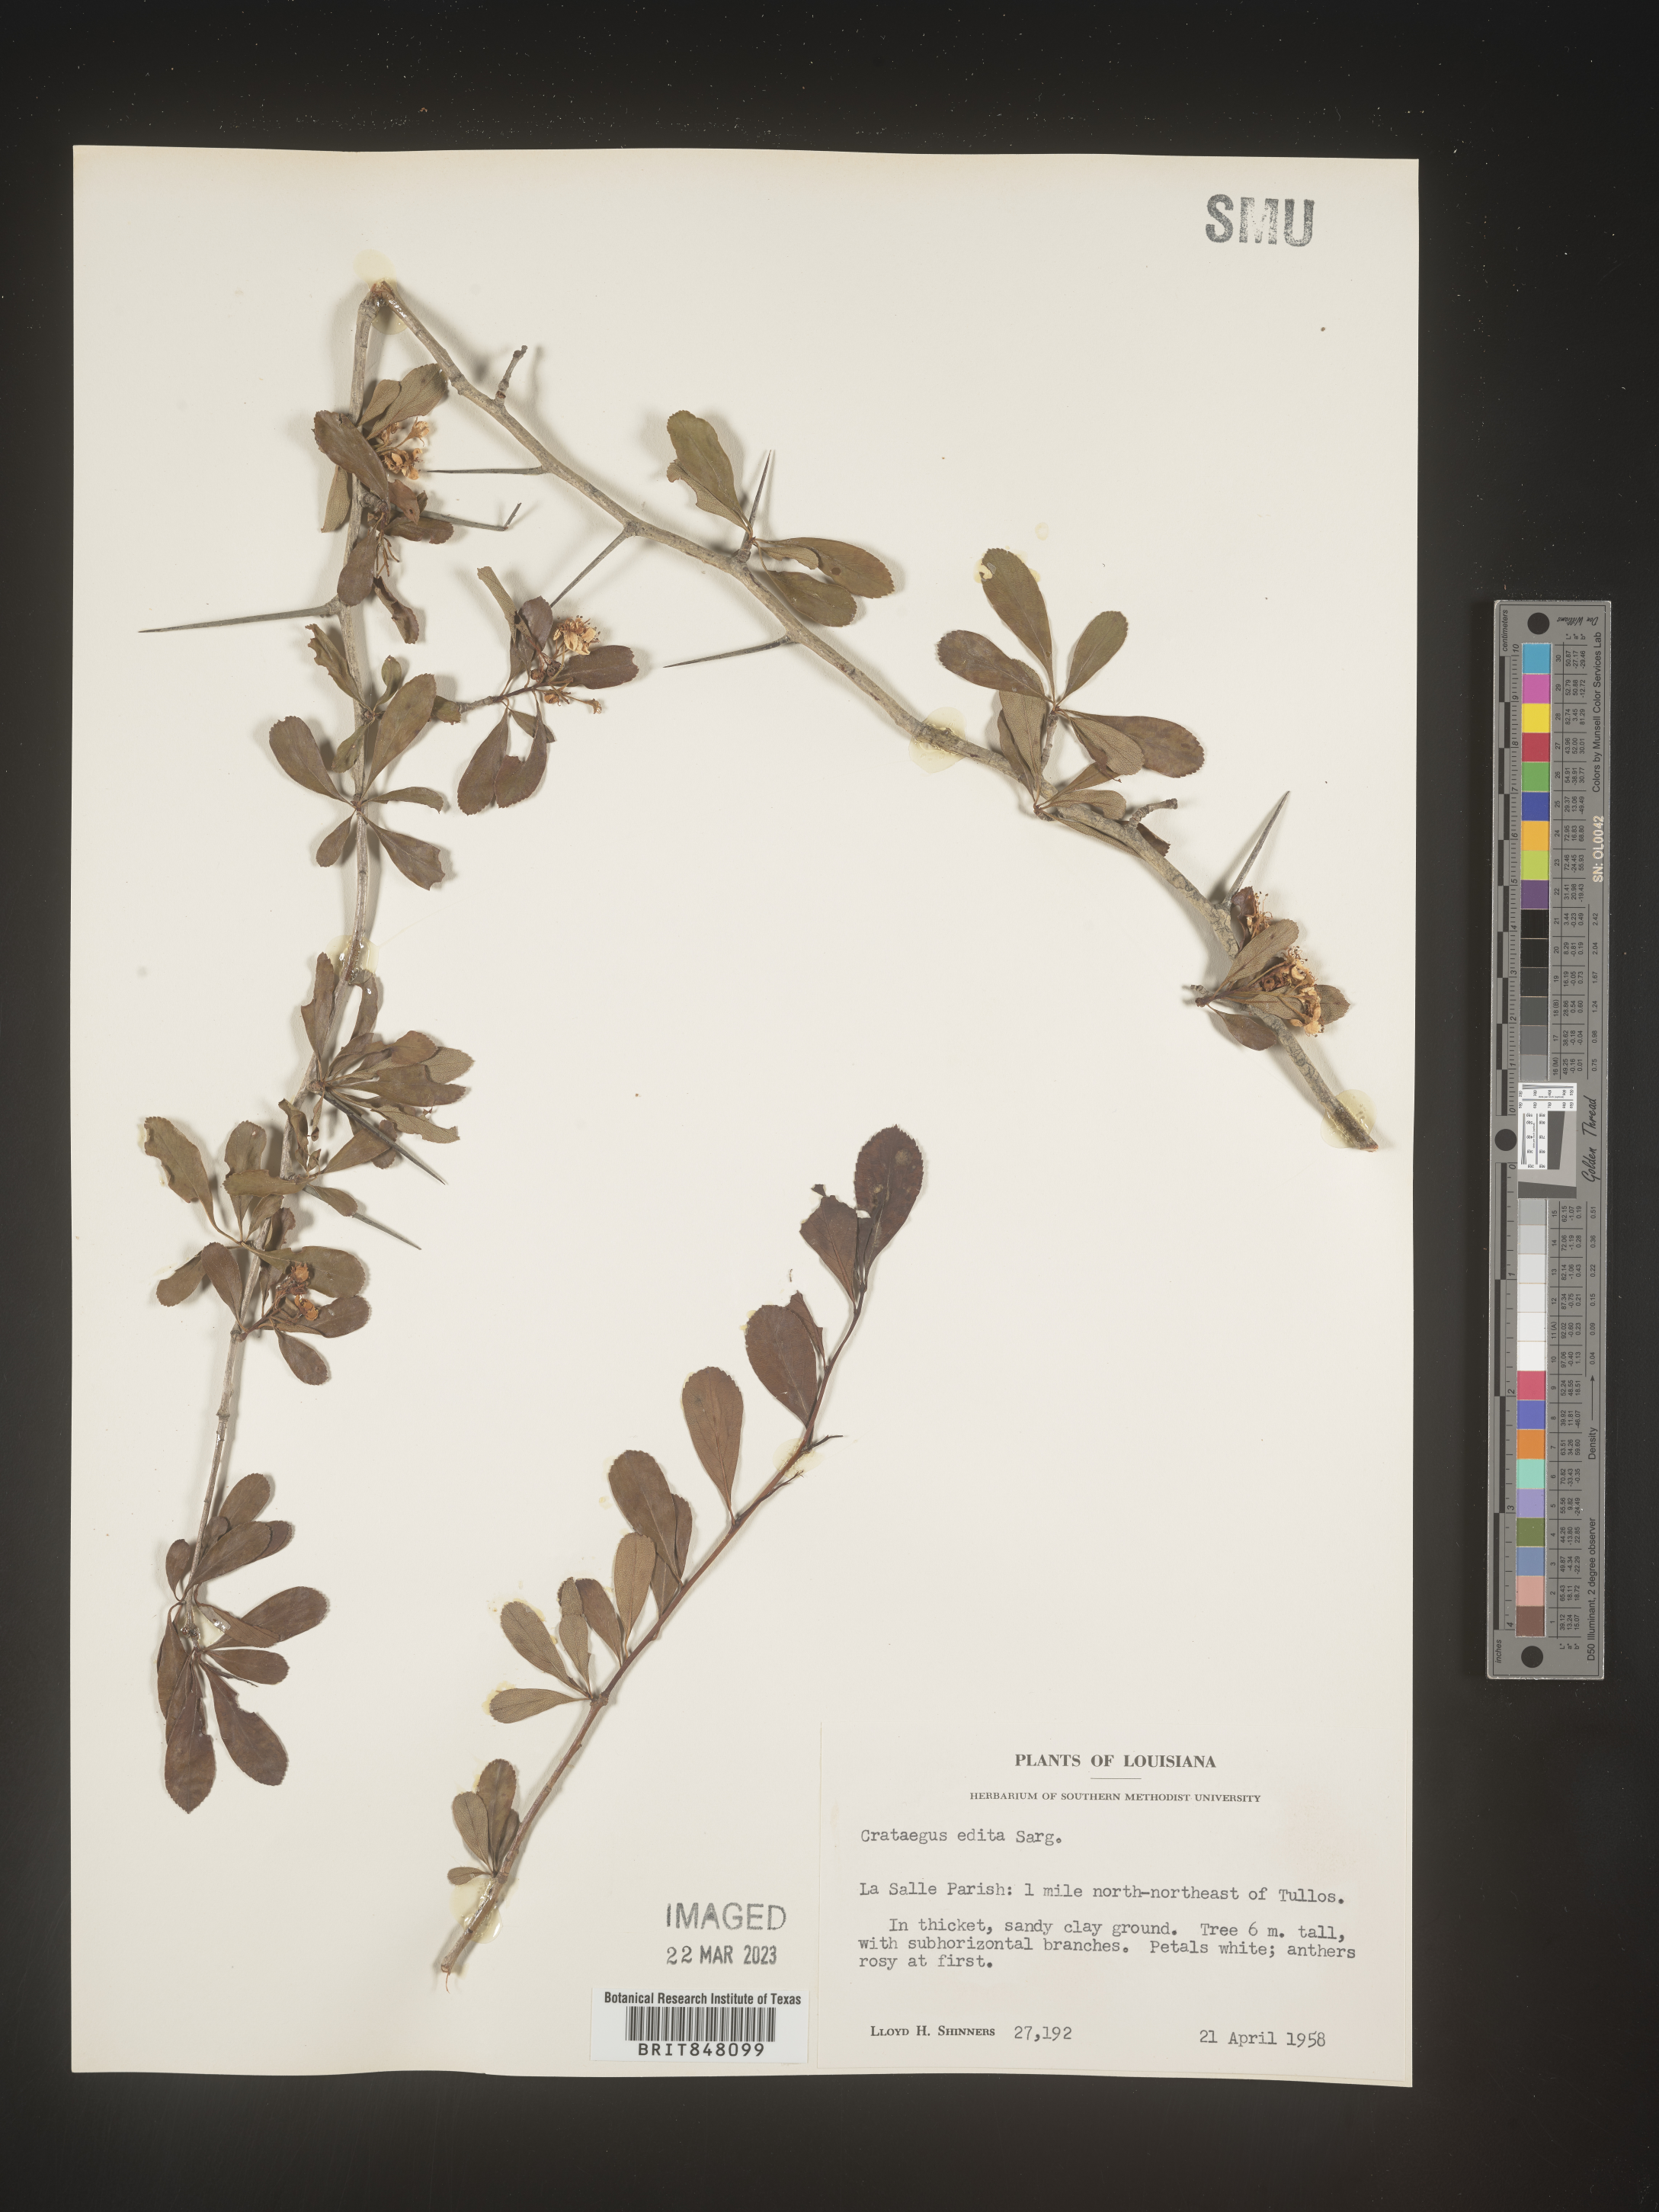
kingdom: Plantae
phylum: Tracheophyta
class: Magnoliopsida
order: Rosales
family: Rosaceae
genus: Crataegus
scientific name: Crataegus berberifolia
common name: Barberry hawthorn
